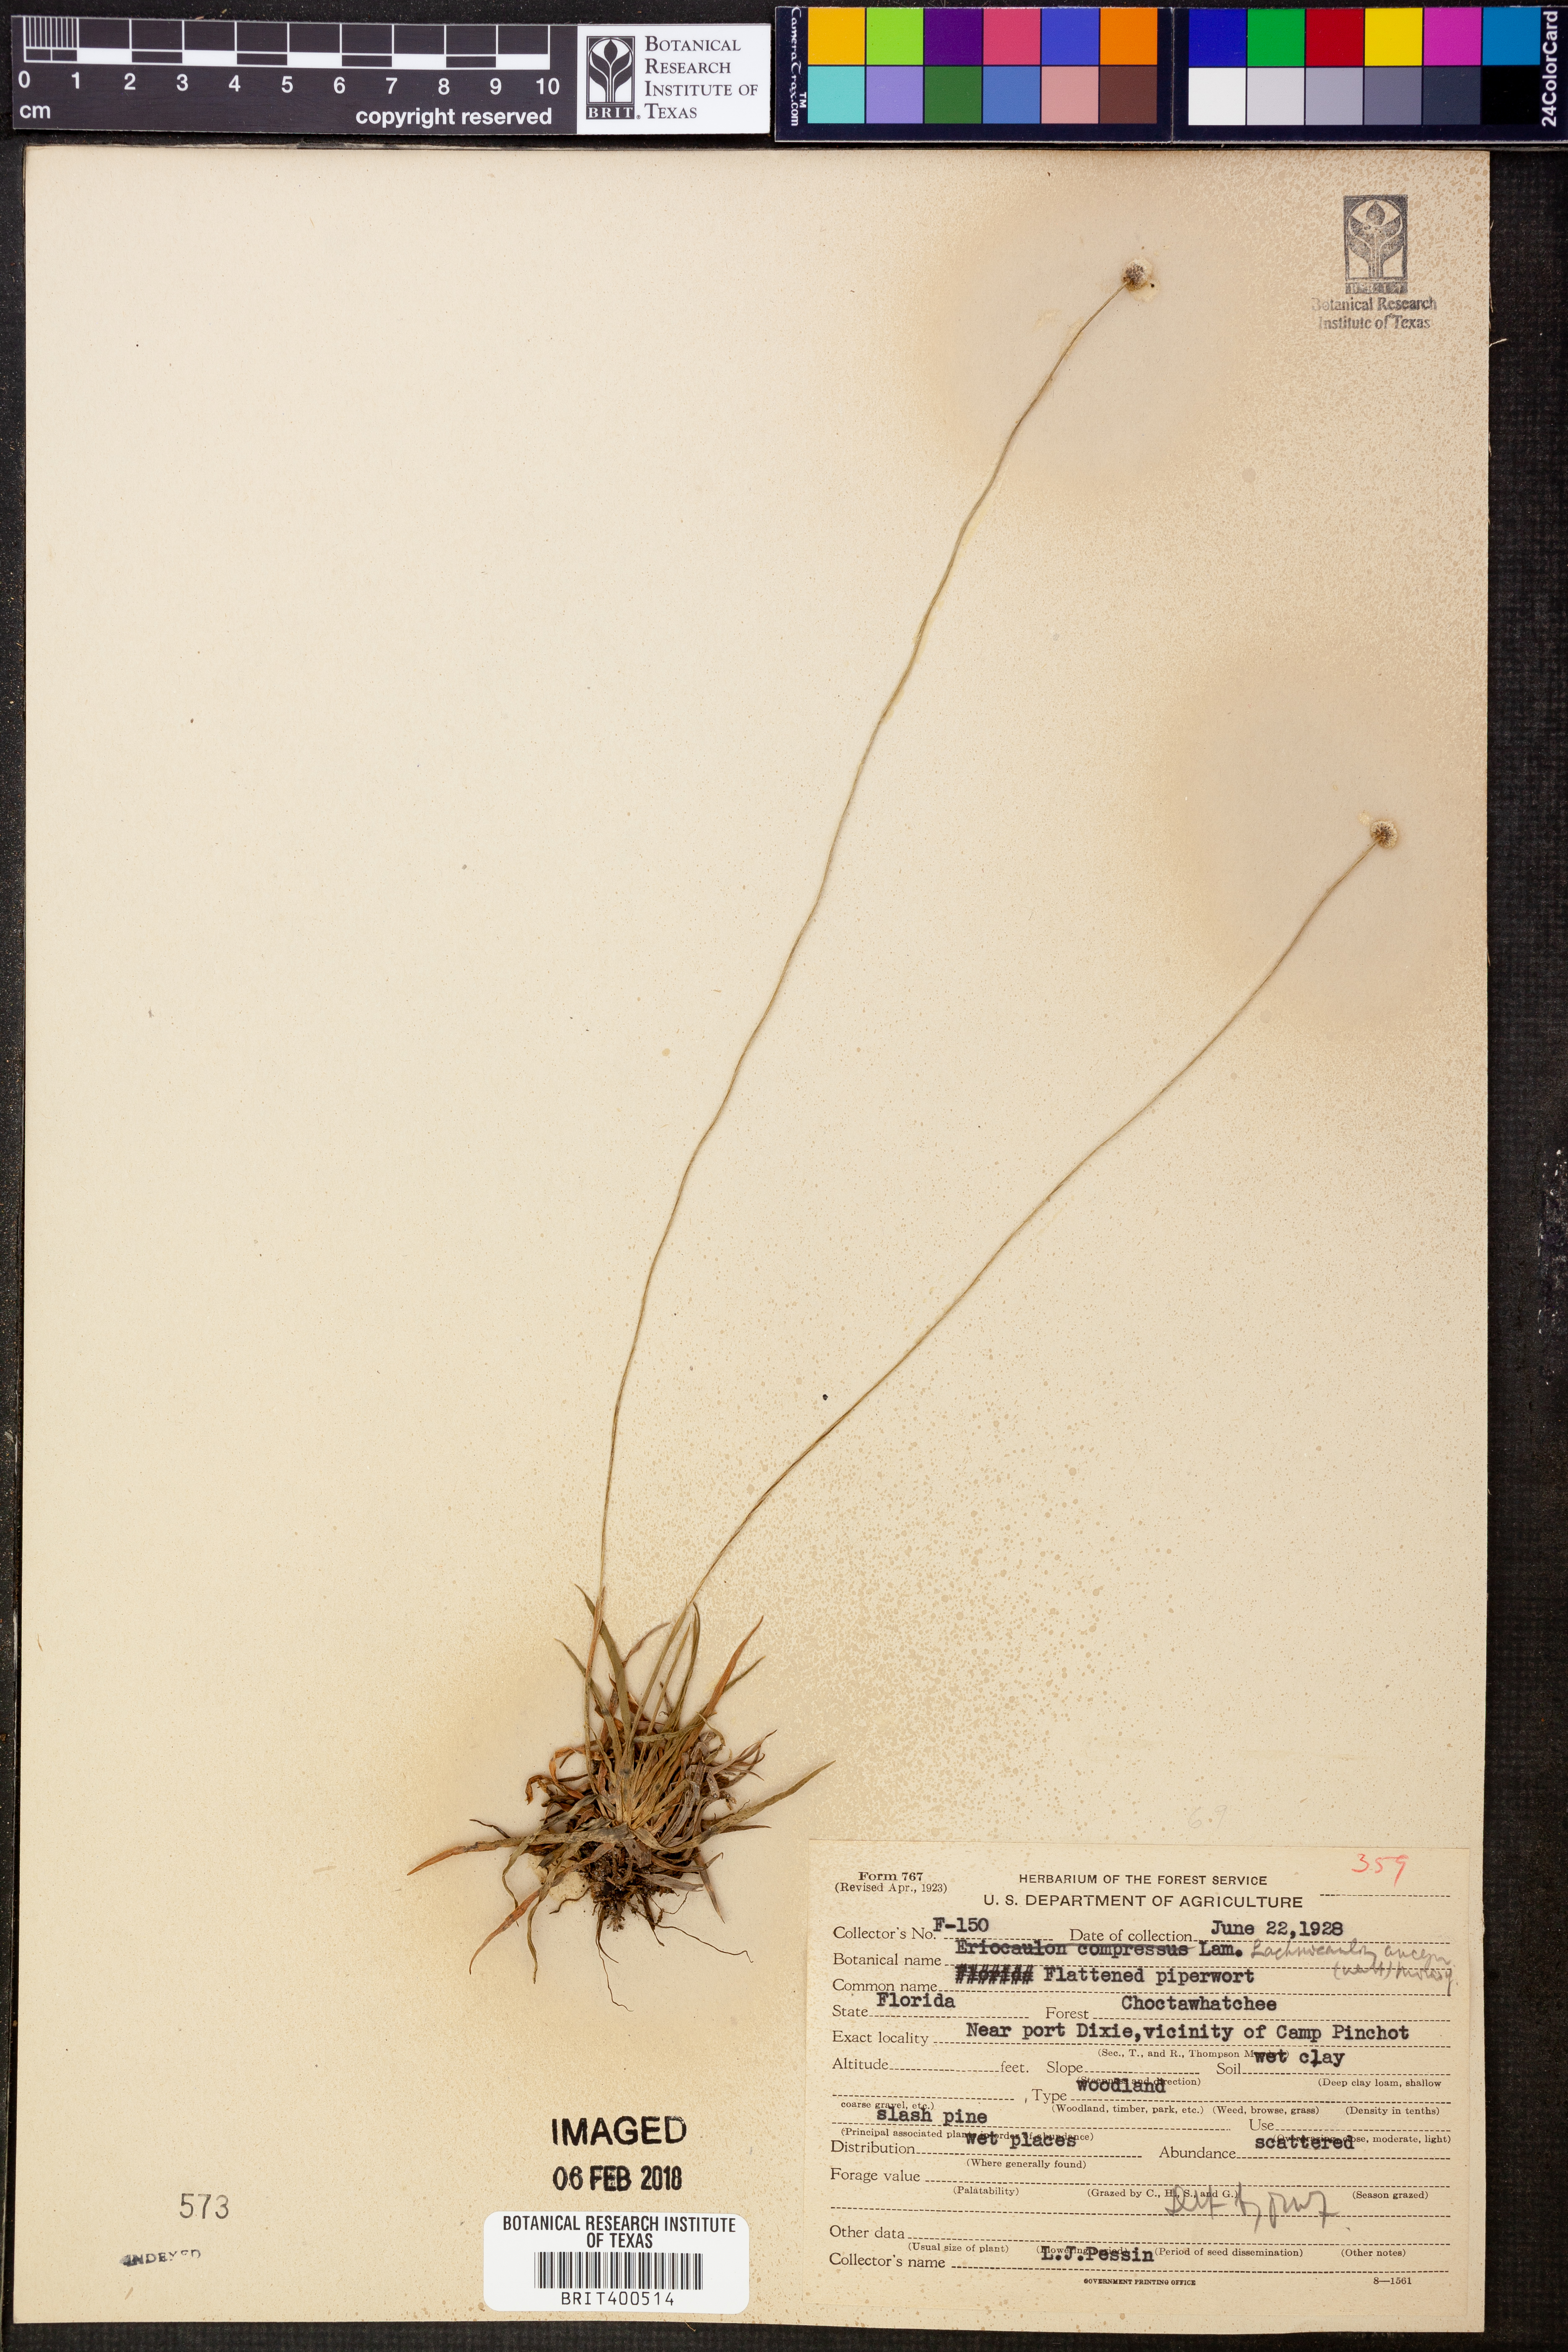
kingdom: Plantae
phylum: Tracheophyta
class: Liliopsida
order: Poales
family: Eriocaulaceae
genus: Paepalanthus
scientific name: Paepalanthus anceps
